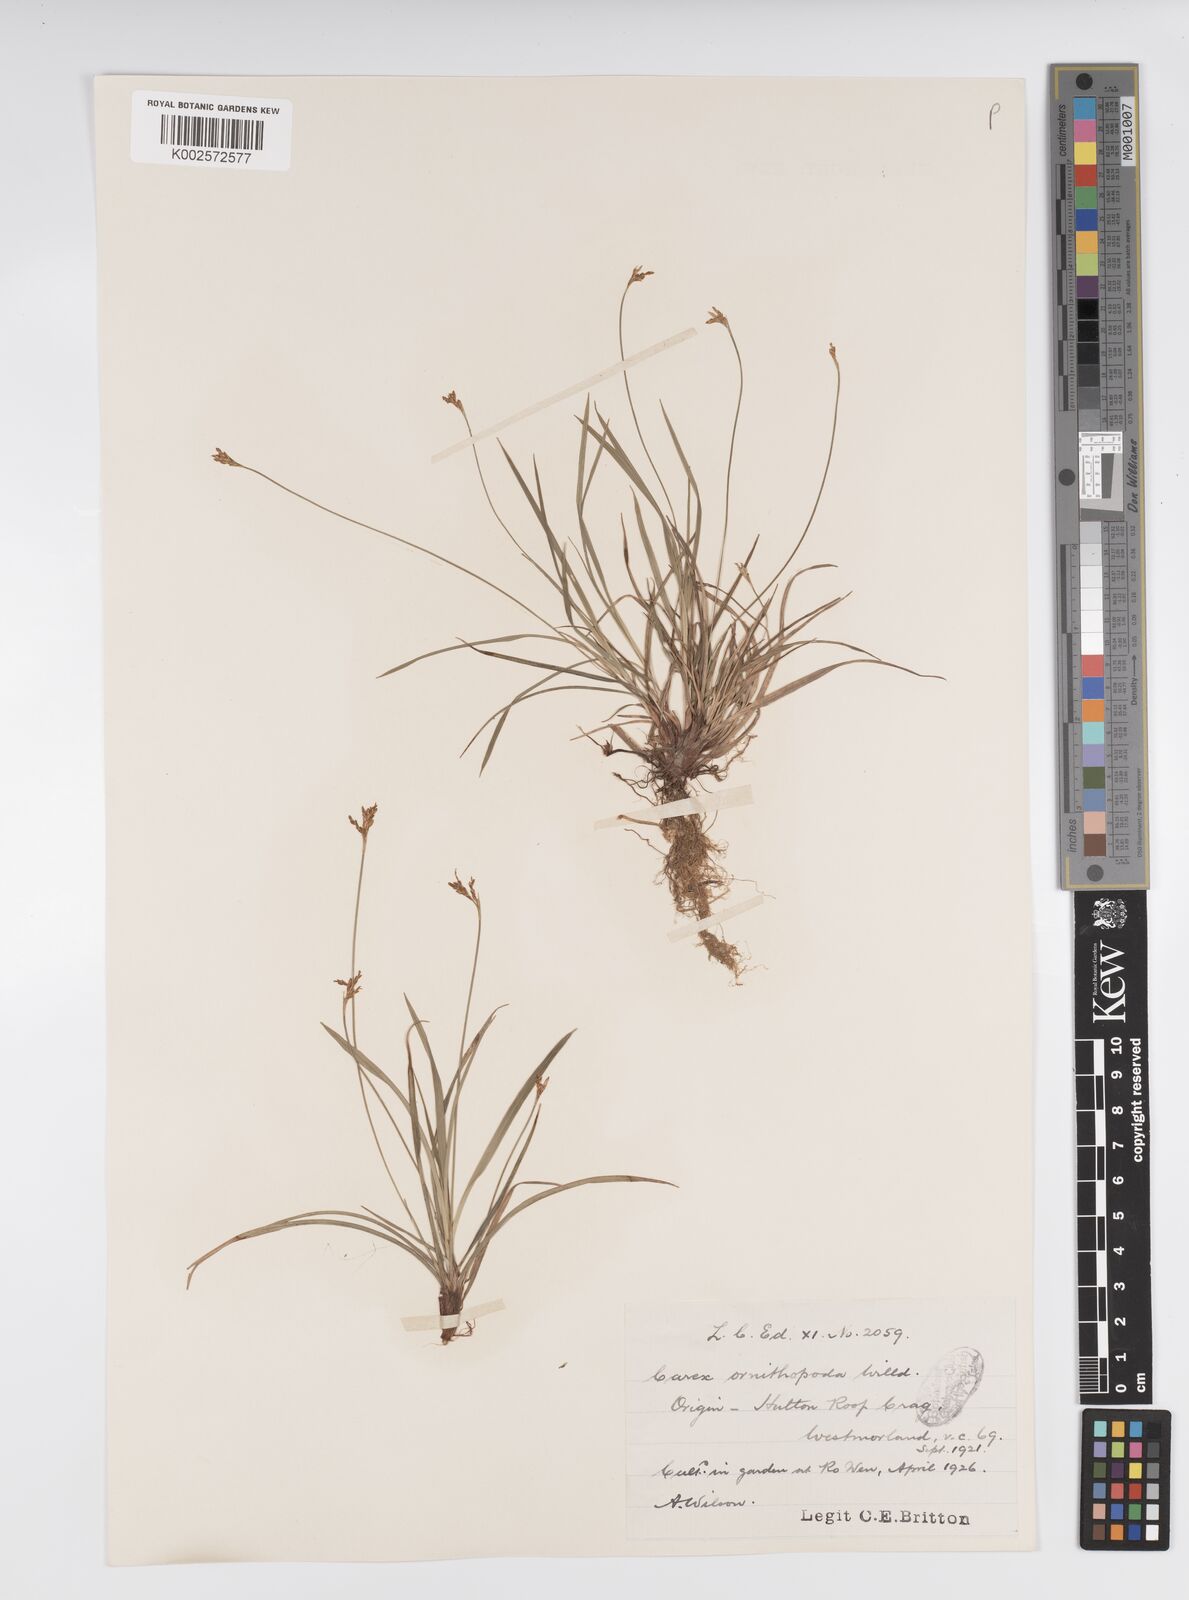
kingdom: Plantae
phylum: Tracheophyta
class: Liliopsida
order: Poales
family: Cyperaceae
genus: Carex
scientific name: Carex ornithopoda
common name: Bird's-foot sedge
